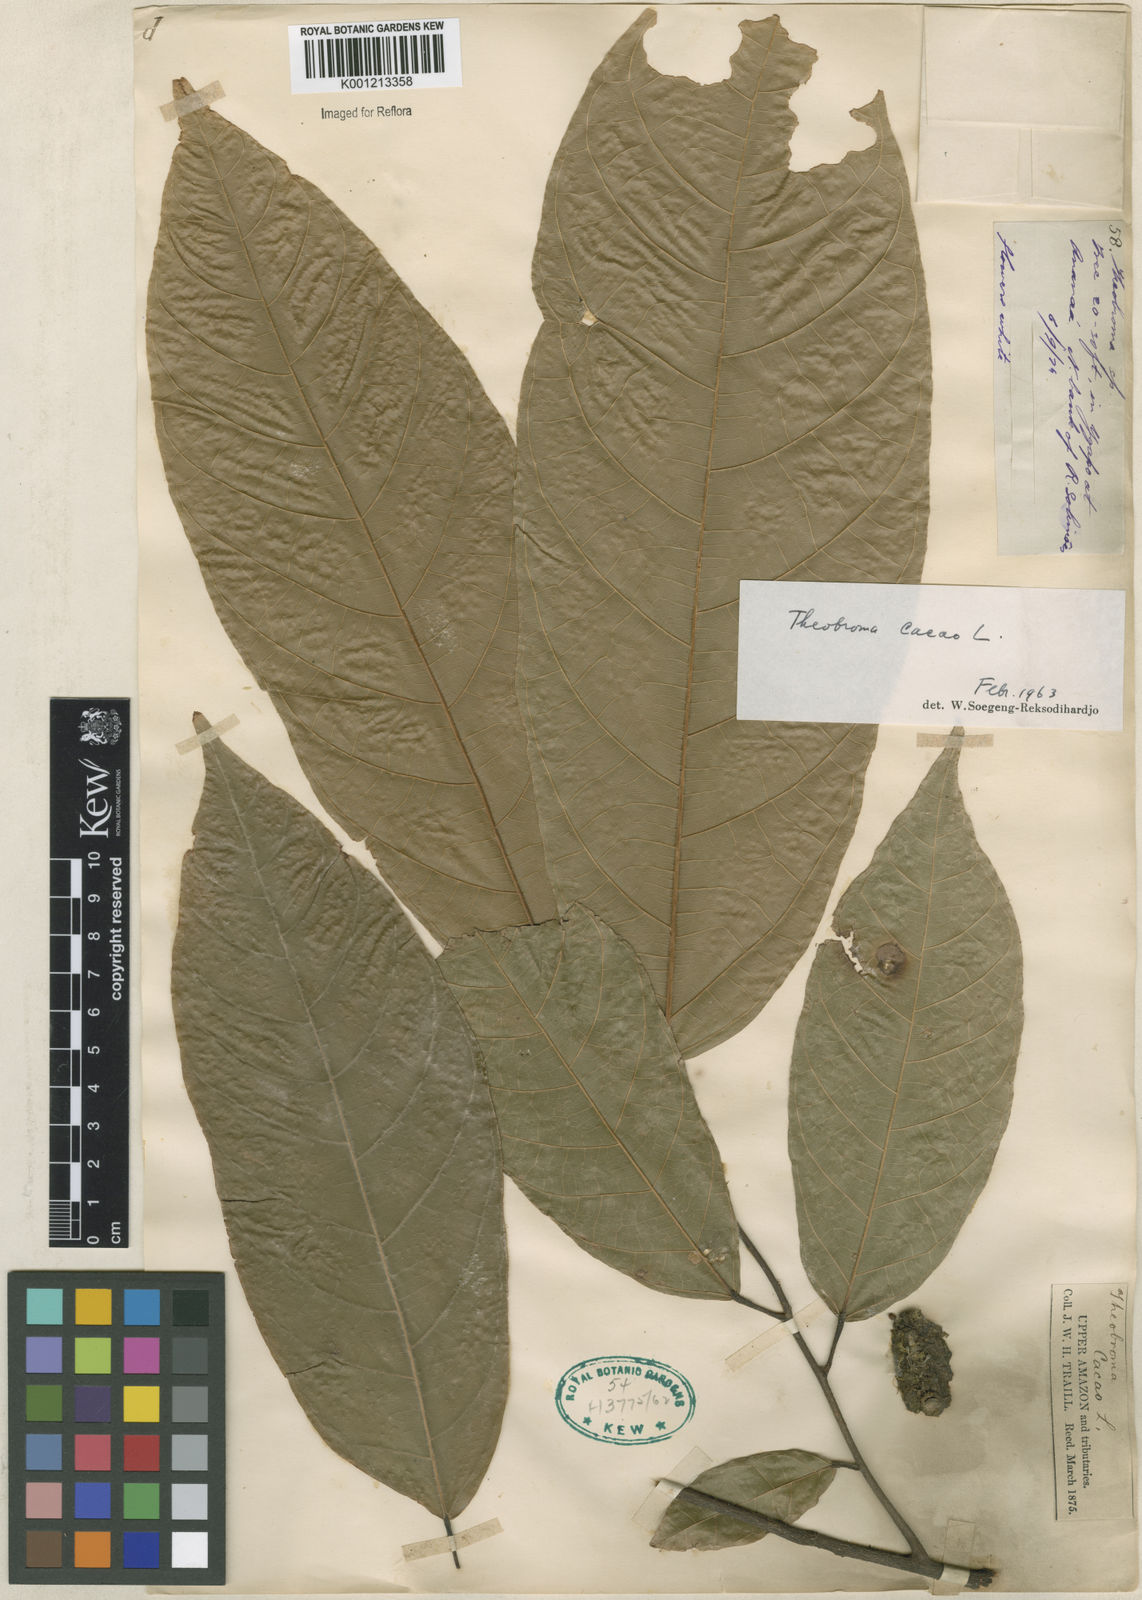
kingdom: Plantae
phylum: Tracheophyta
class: Magnoliopsida
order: Malvales
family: Malvaceae
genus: Theobroma
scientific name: Theobroma cacao
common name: Cocoa
